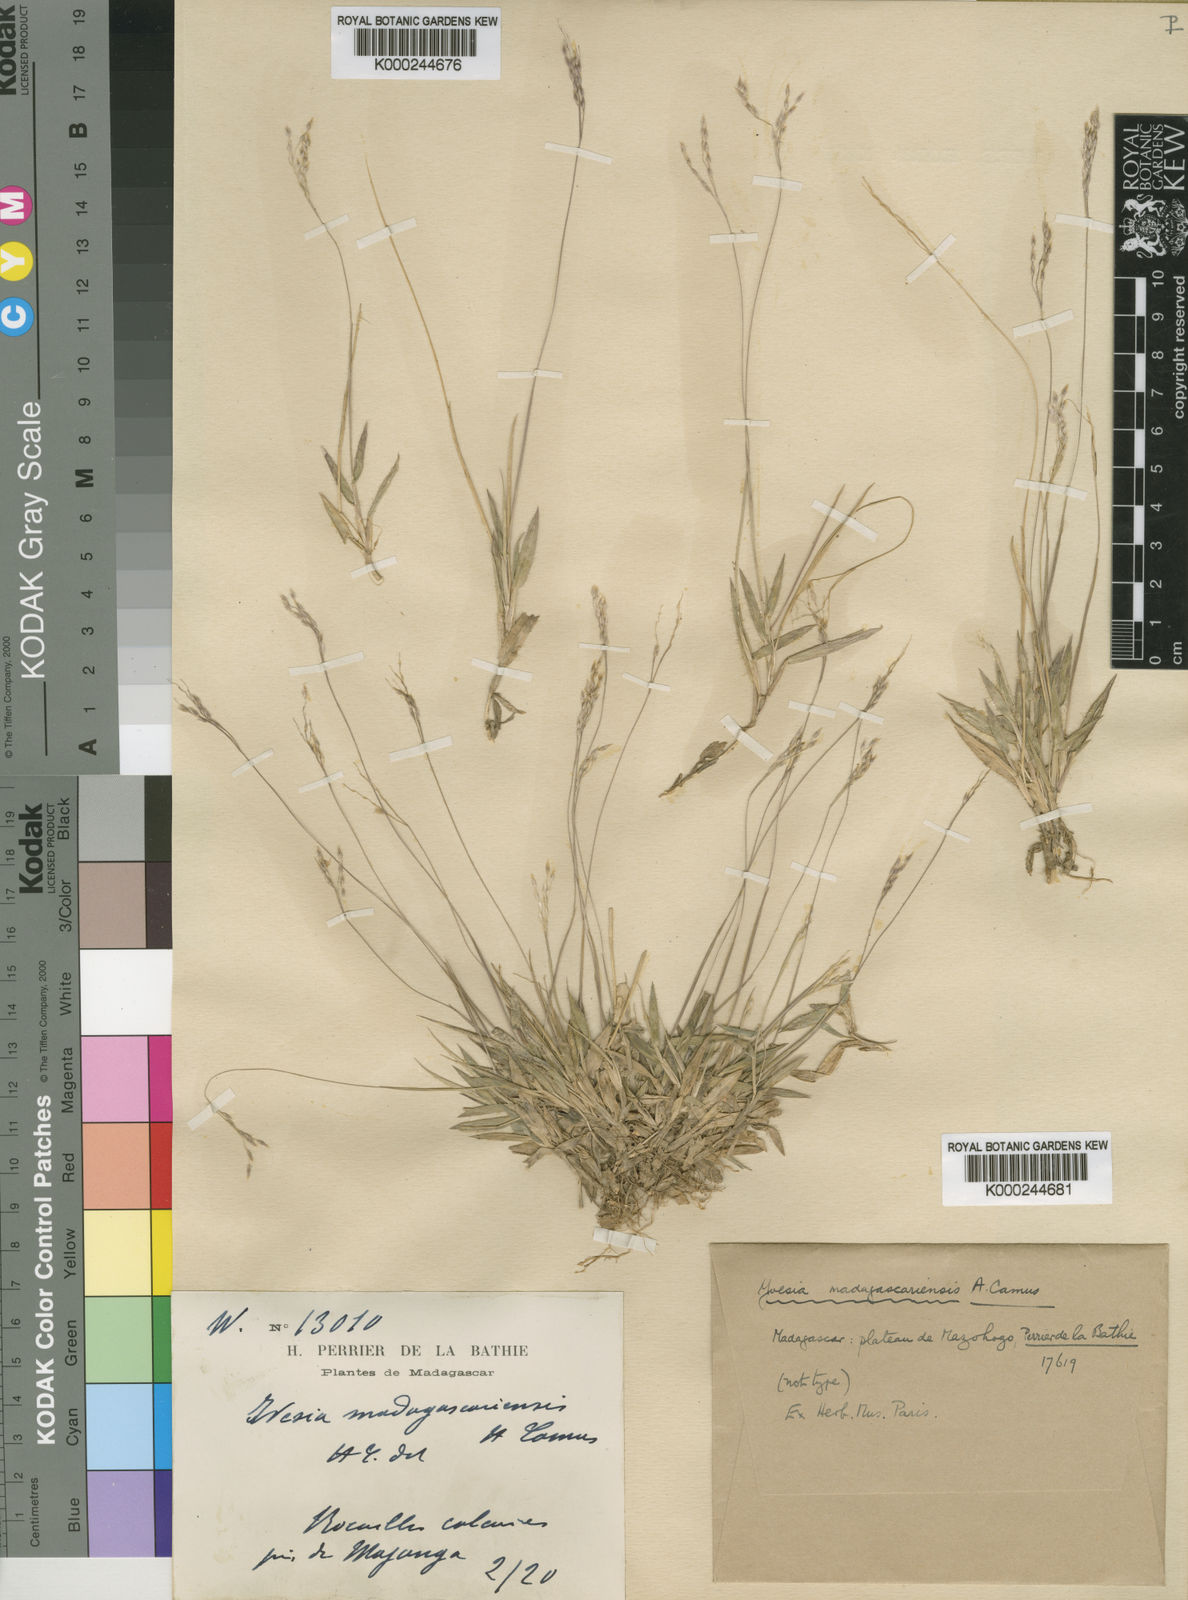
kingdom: Plantae
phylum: Tracheophyta
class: Liliopsida
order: Poales
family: Poaceae
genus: Yvesia
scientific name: Yvesia madagascariensis
